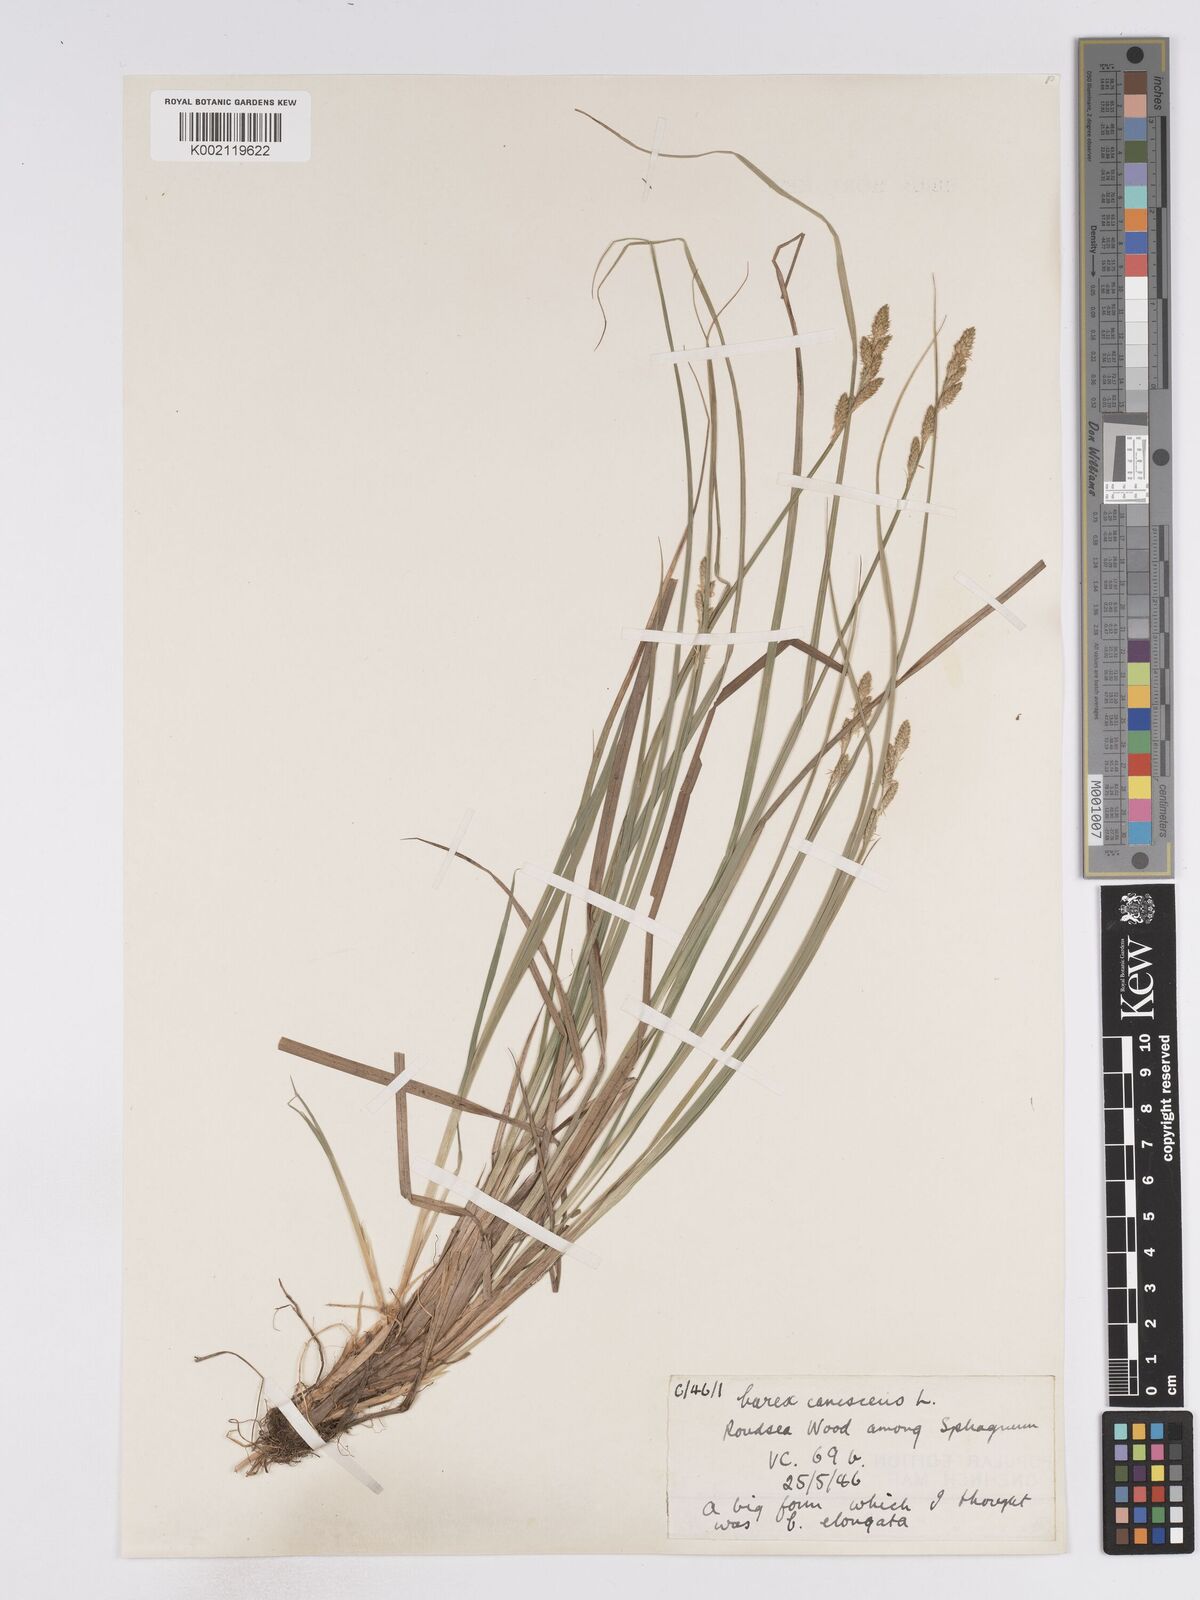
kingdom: Plantae
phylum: Tracheophyta
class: Liliopsida
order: Poales
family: Cyperaceae
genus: Carex
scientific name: Carex curta
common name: White sedge
